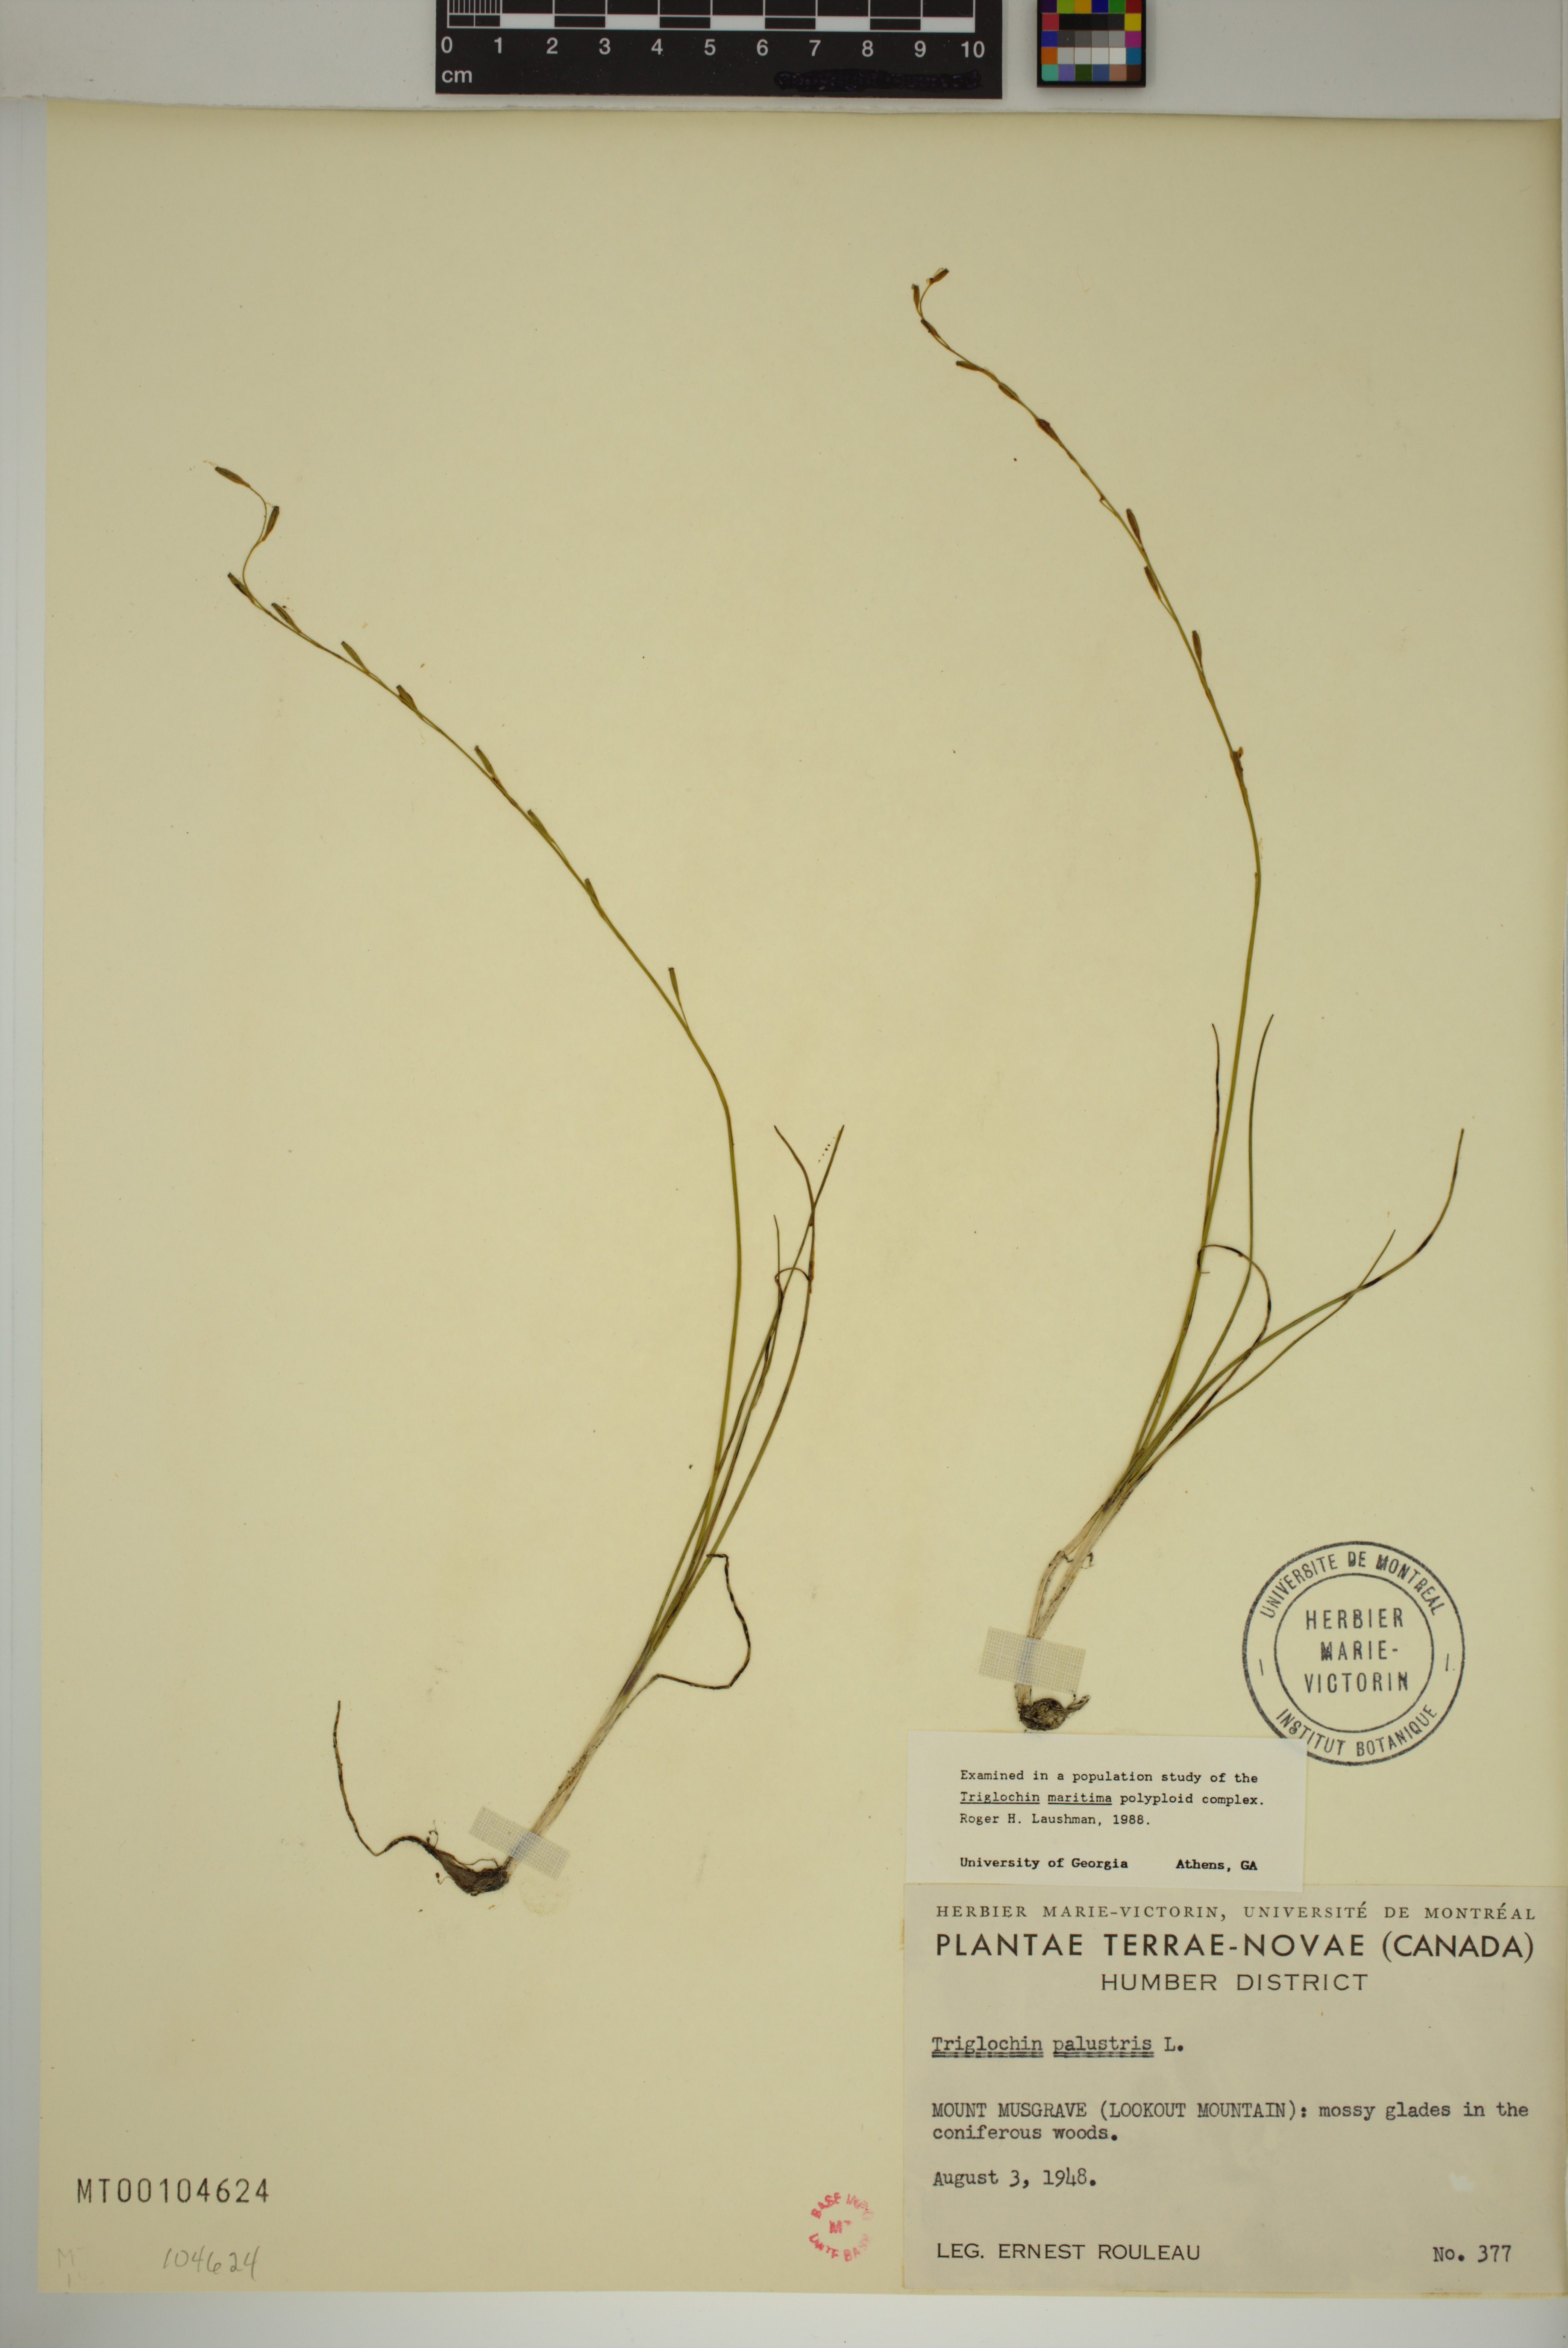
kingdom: Plantae
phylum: Tracheophyta
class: Liliopsida
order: Alismatales
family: Juncaginaceae
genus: Triglochin
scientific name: Triglochin palustris
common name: Marsh arrowgrass
